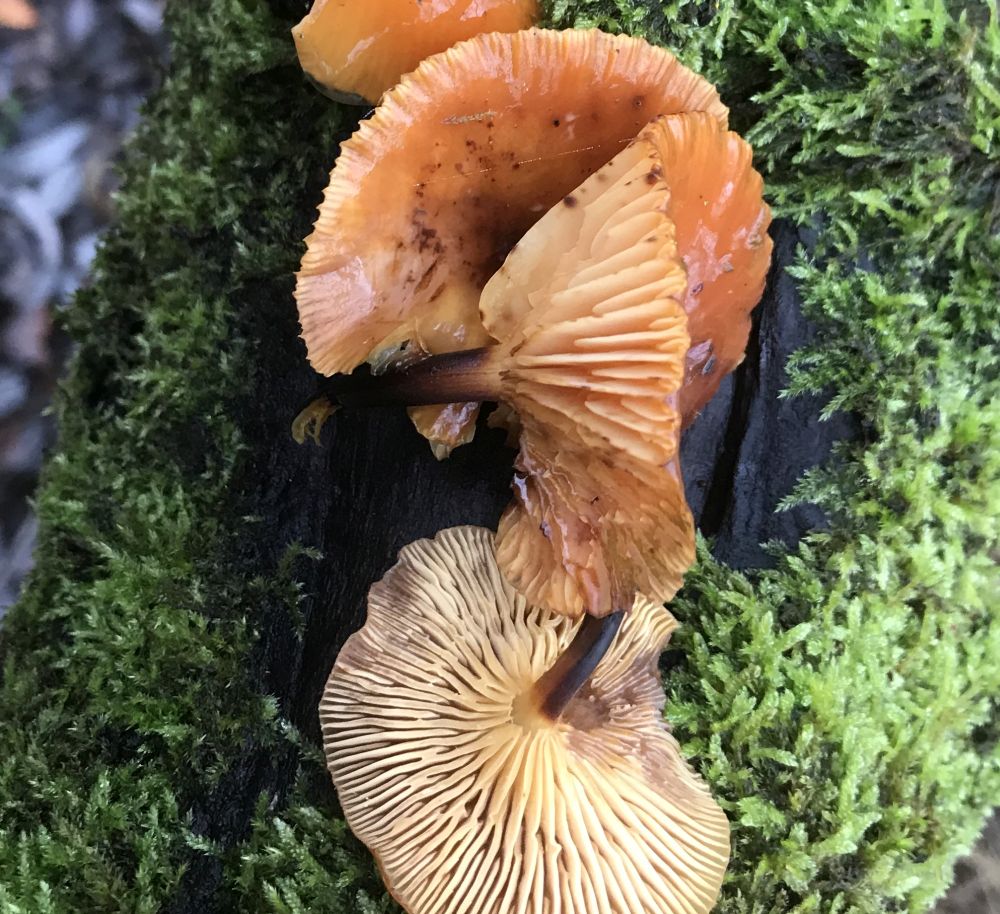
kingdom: Fungi
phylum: Basidiomycota
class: Agaricomycetes
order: Agaricales
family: Physalacriaceae
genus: Flammulina
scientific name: Flammulina
